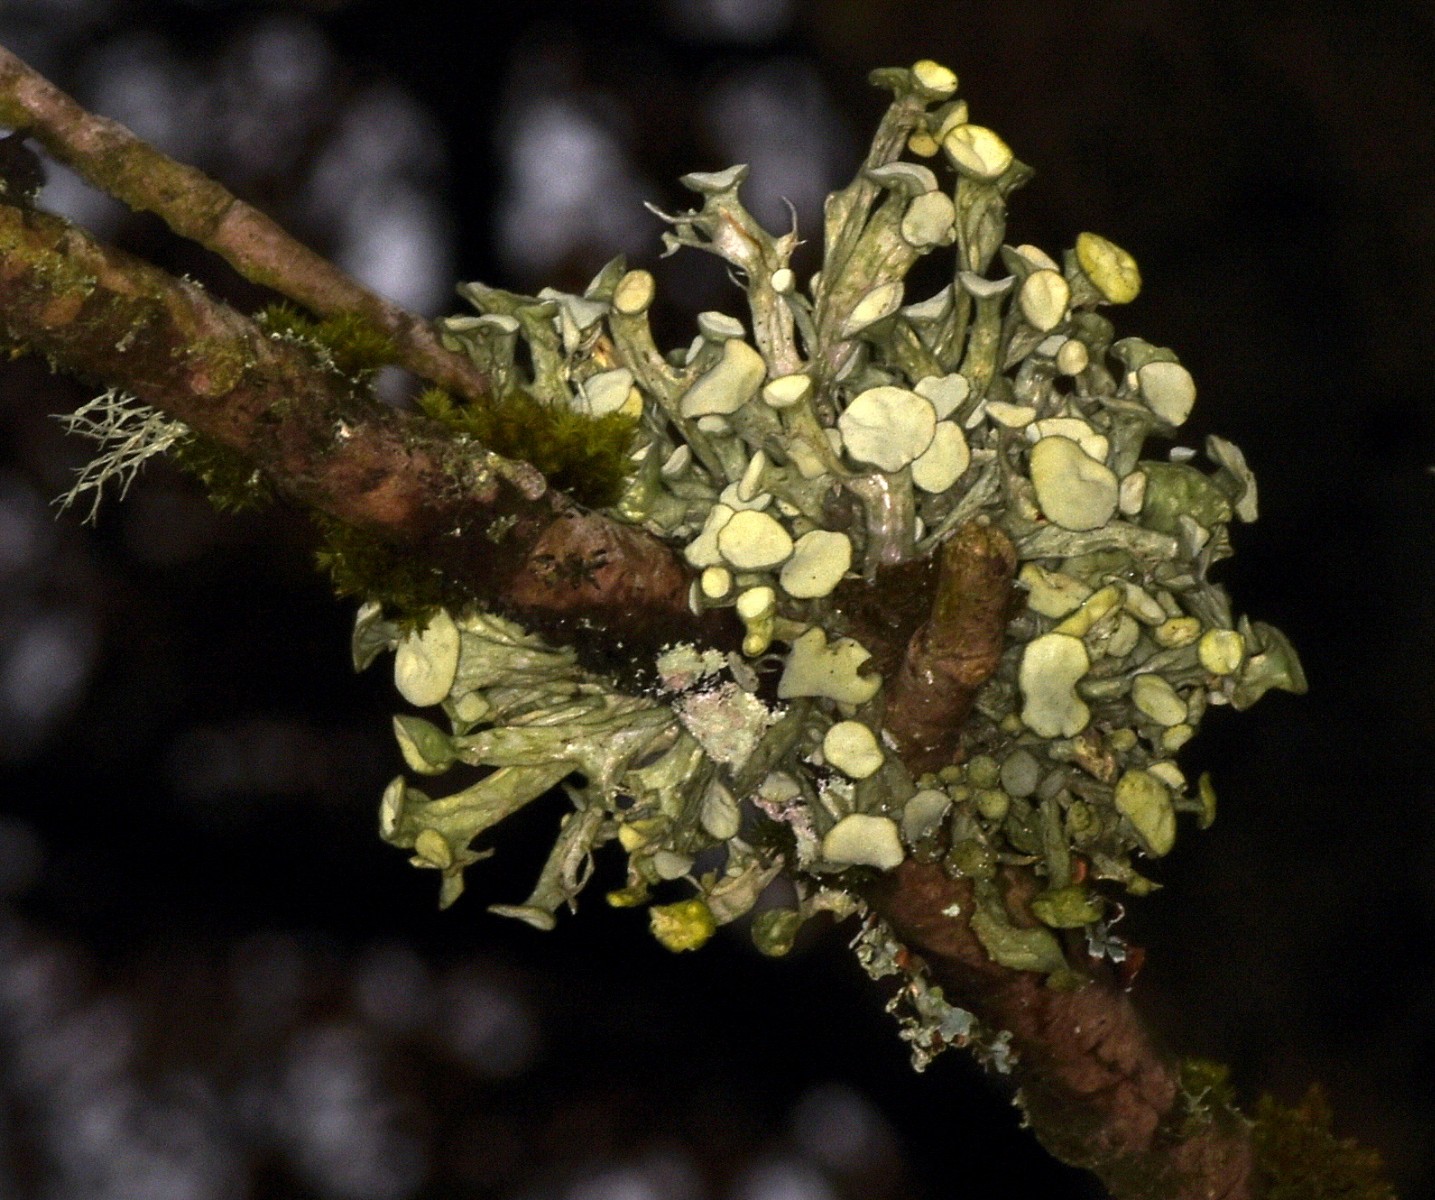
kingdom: Fungi
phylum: Ascomycota
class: Lecanoromycetes
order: Lecanorales
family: Ramalinaceae
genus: Ramalina
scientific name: Ramalina fastigiata
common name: tue-grenlav
